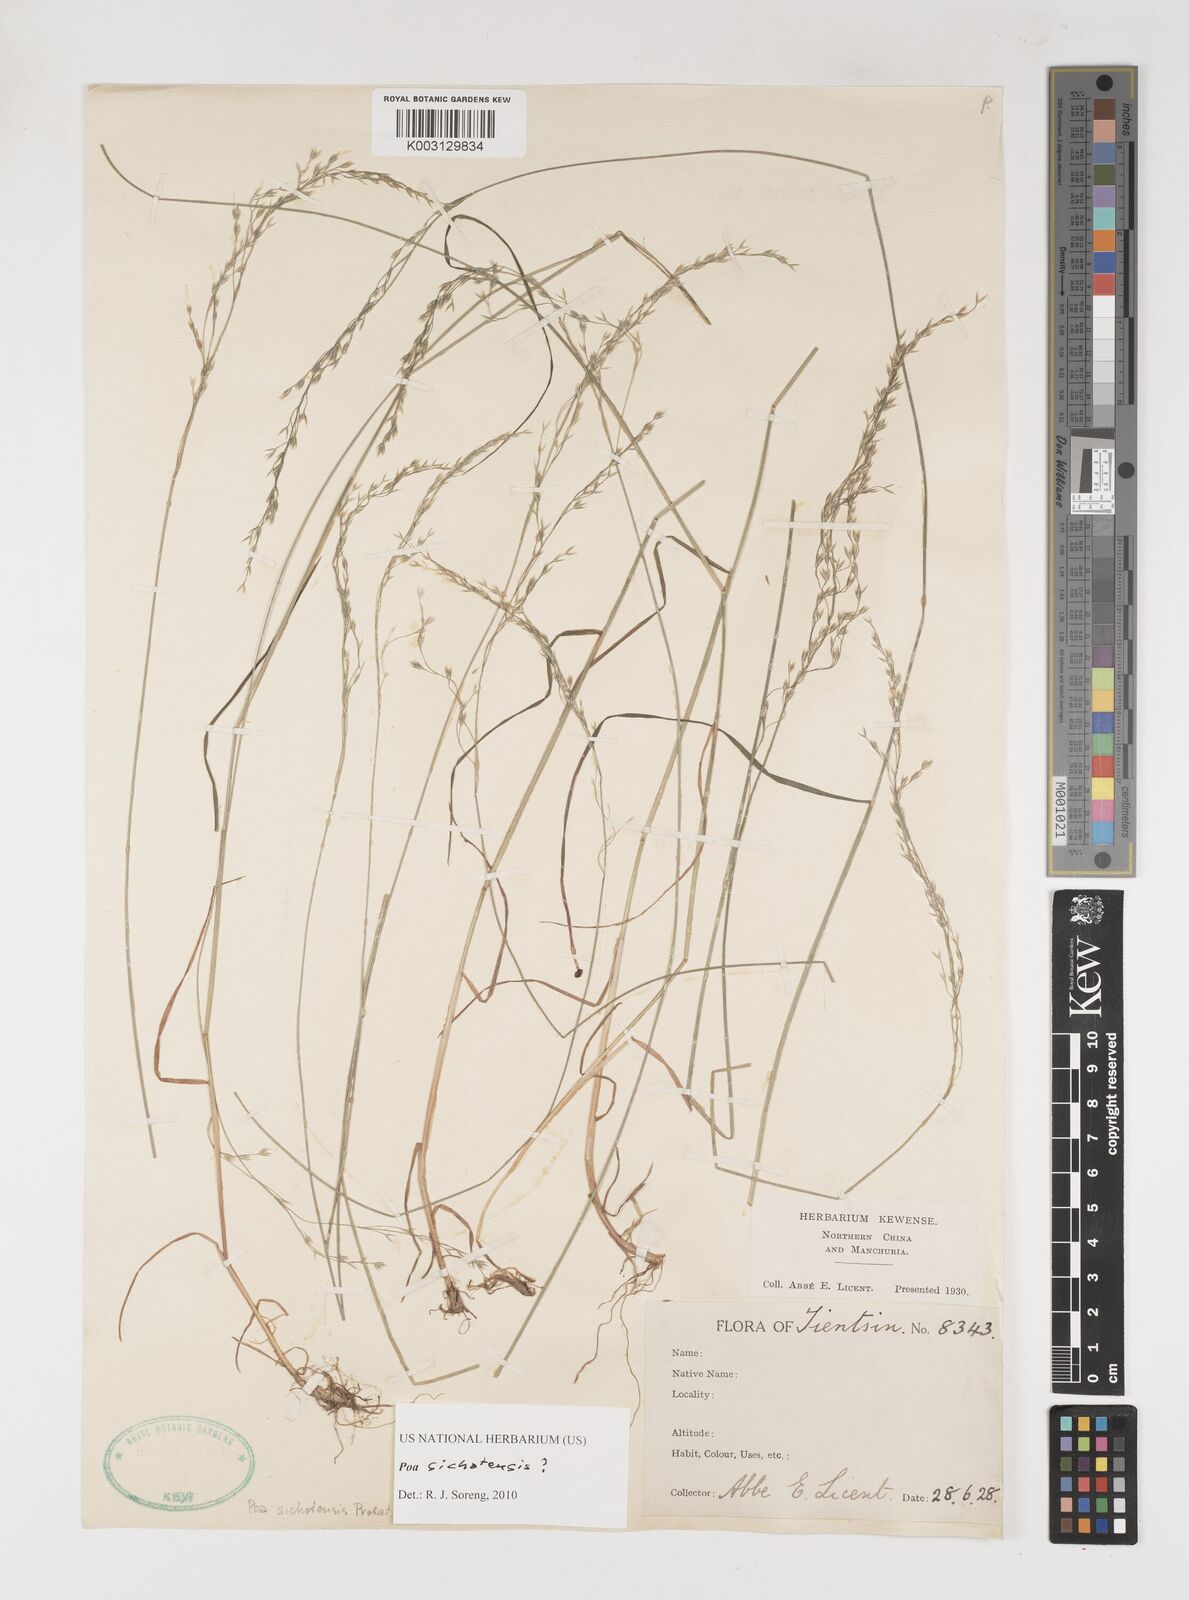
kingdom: Plantae
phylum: Tracheophyta
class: Liliopsida
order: Poales
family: Poaceae
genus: Poa
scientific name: Poa sichotensis
